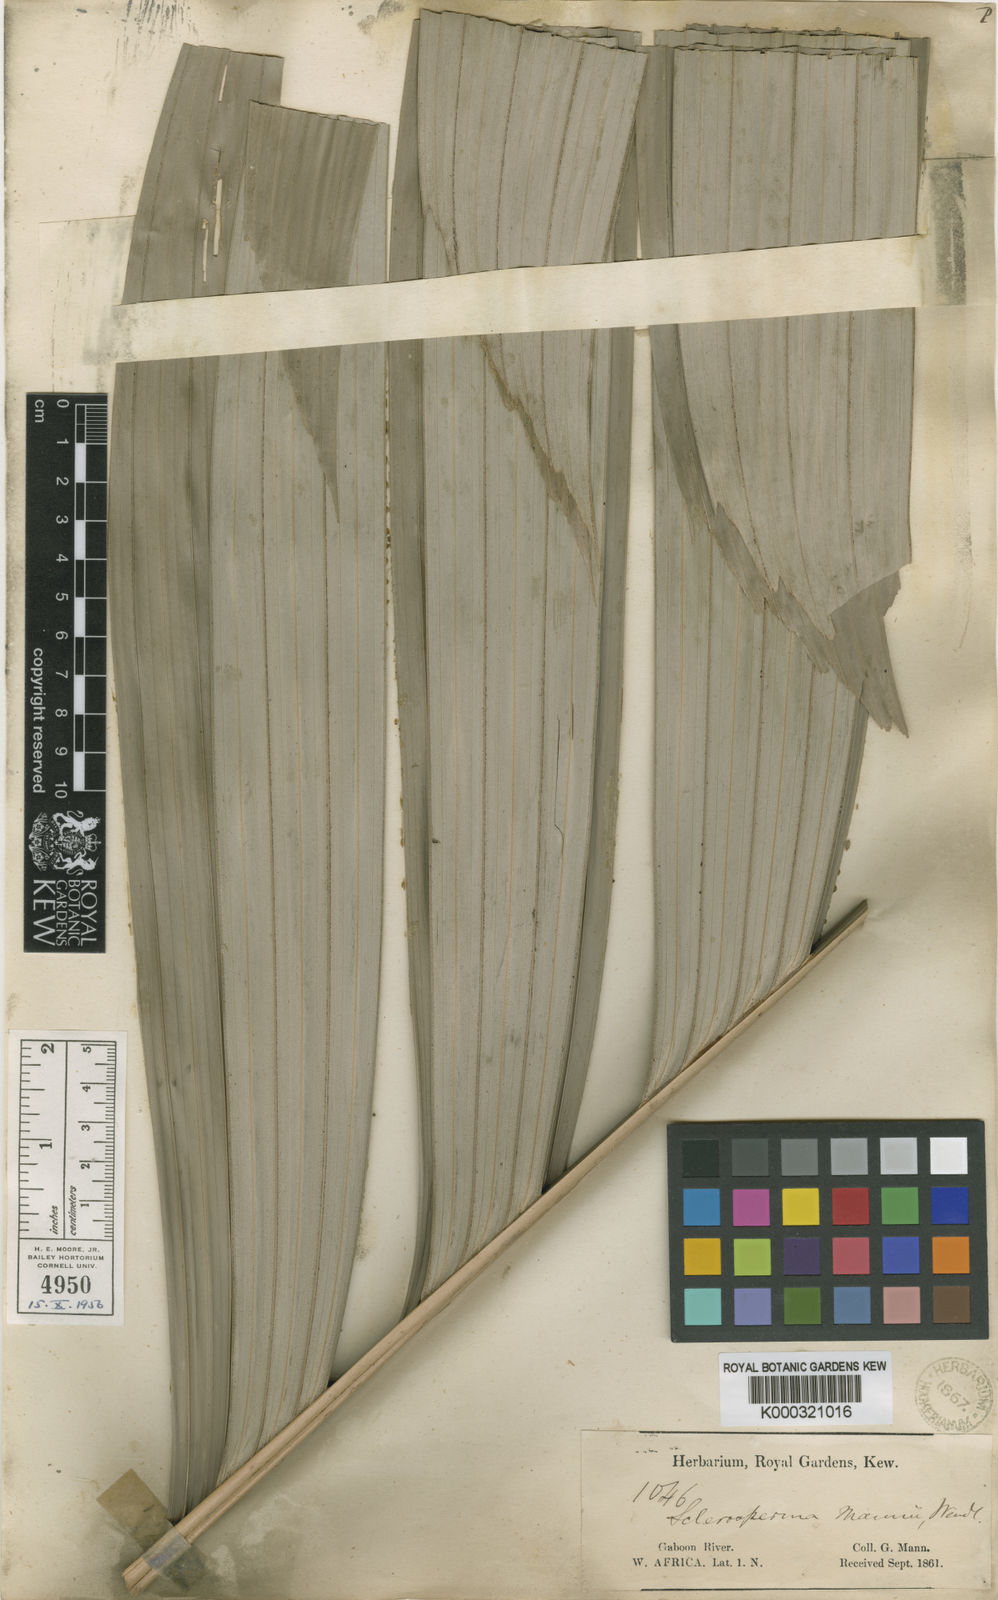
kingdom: Plantae
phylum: Tracheophyta
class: Liliopsida
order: Arecales
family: Arecaceae
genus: Sclerosperma
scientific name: Sclerosperma mannii
